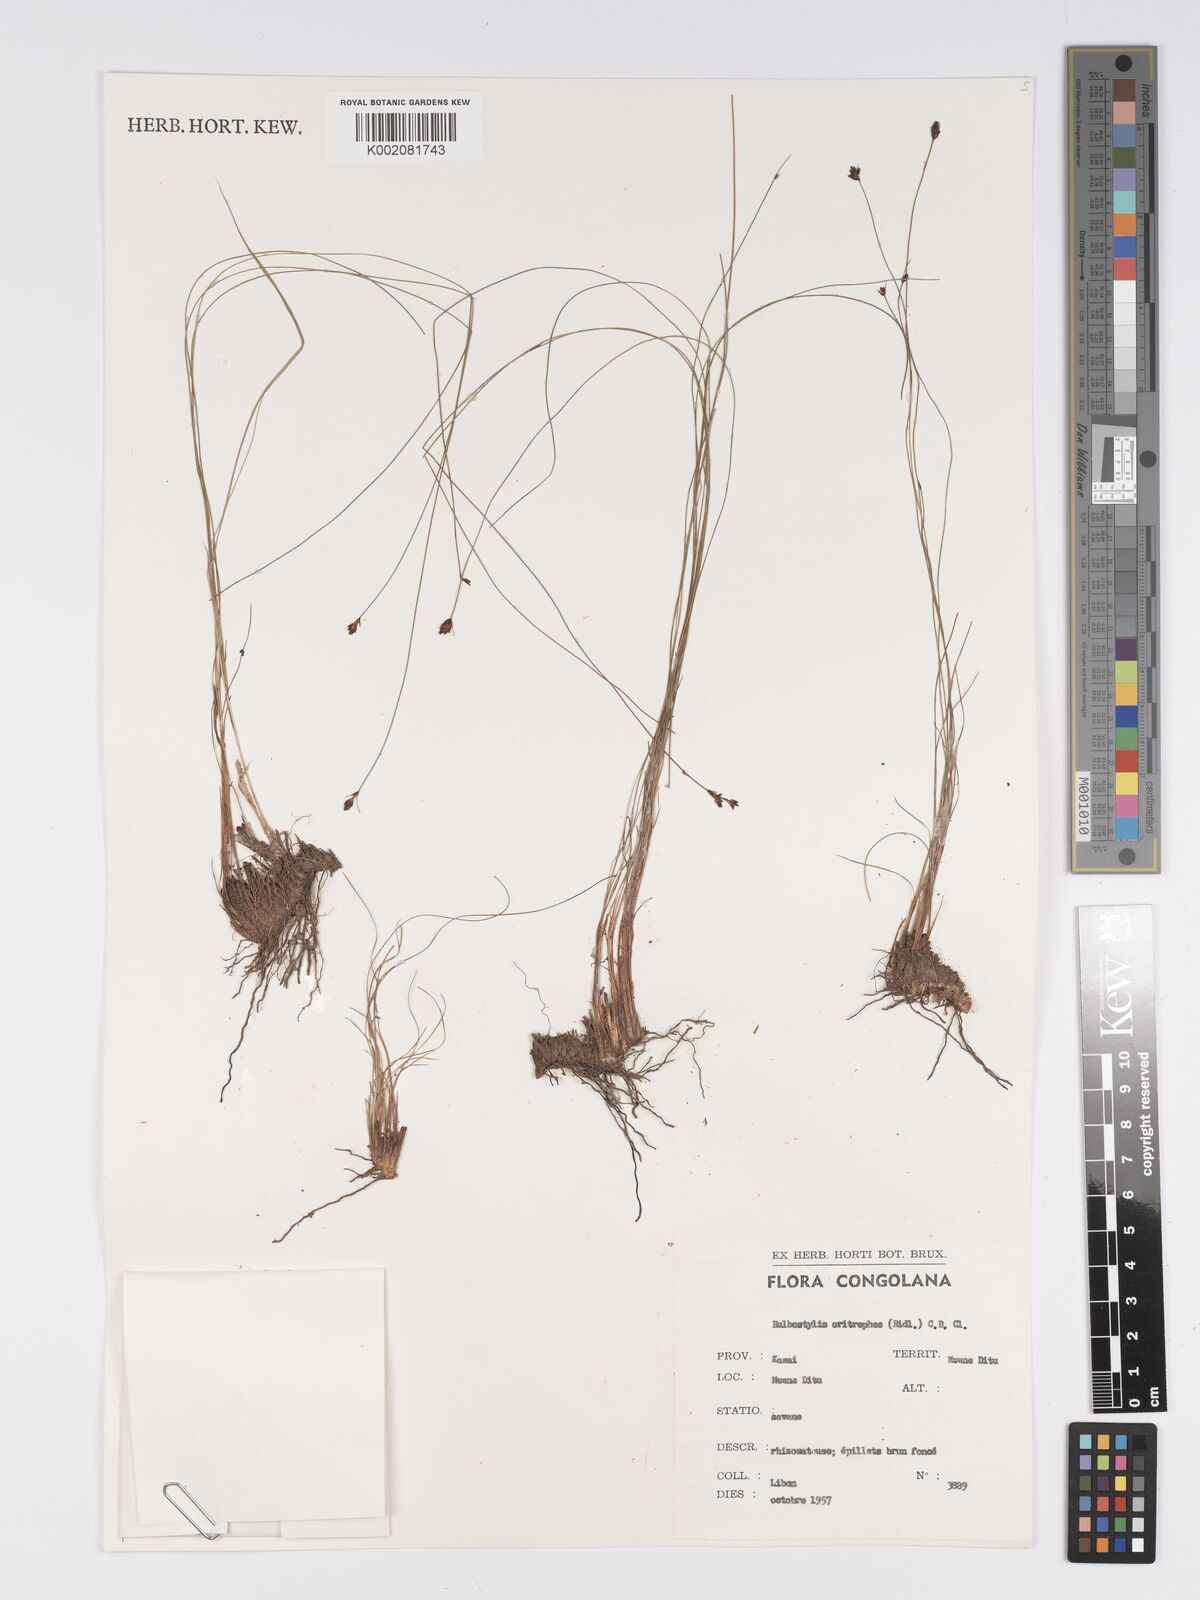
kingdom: Plantae
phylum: Tracheophyta
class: Liliopsida
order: Poales
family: Cyperaceae
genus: Bulbostylis
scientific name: Bulbostylis oritrephes
